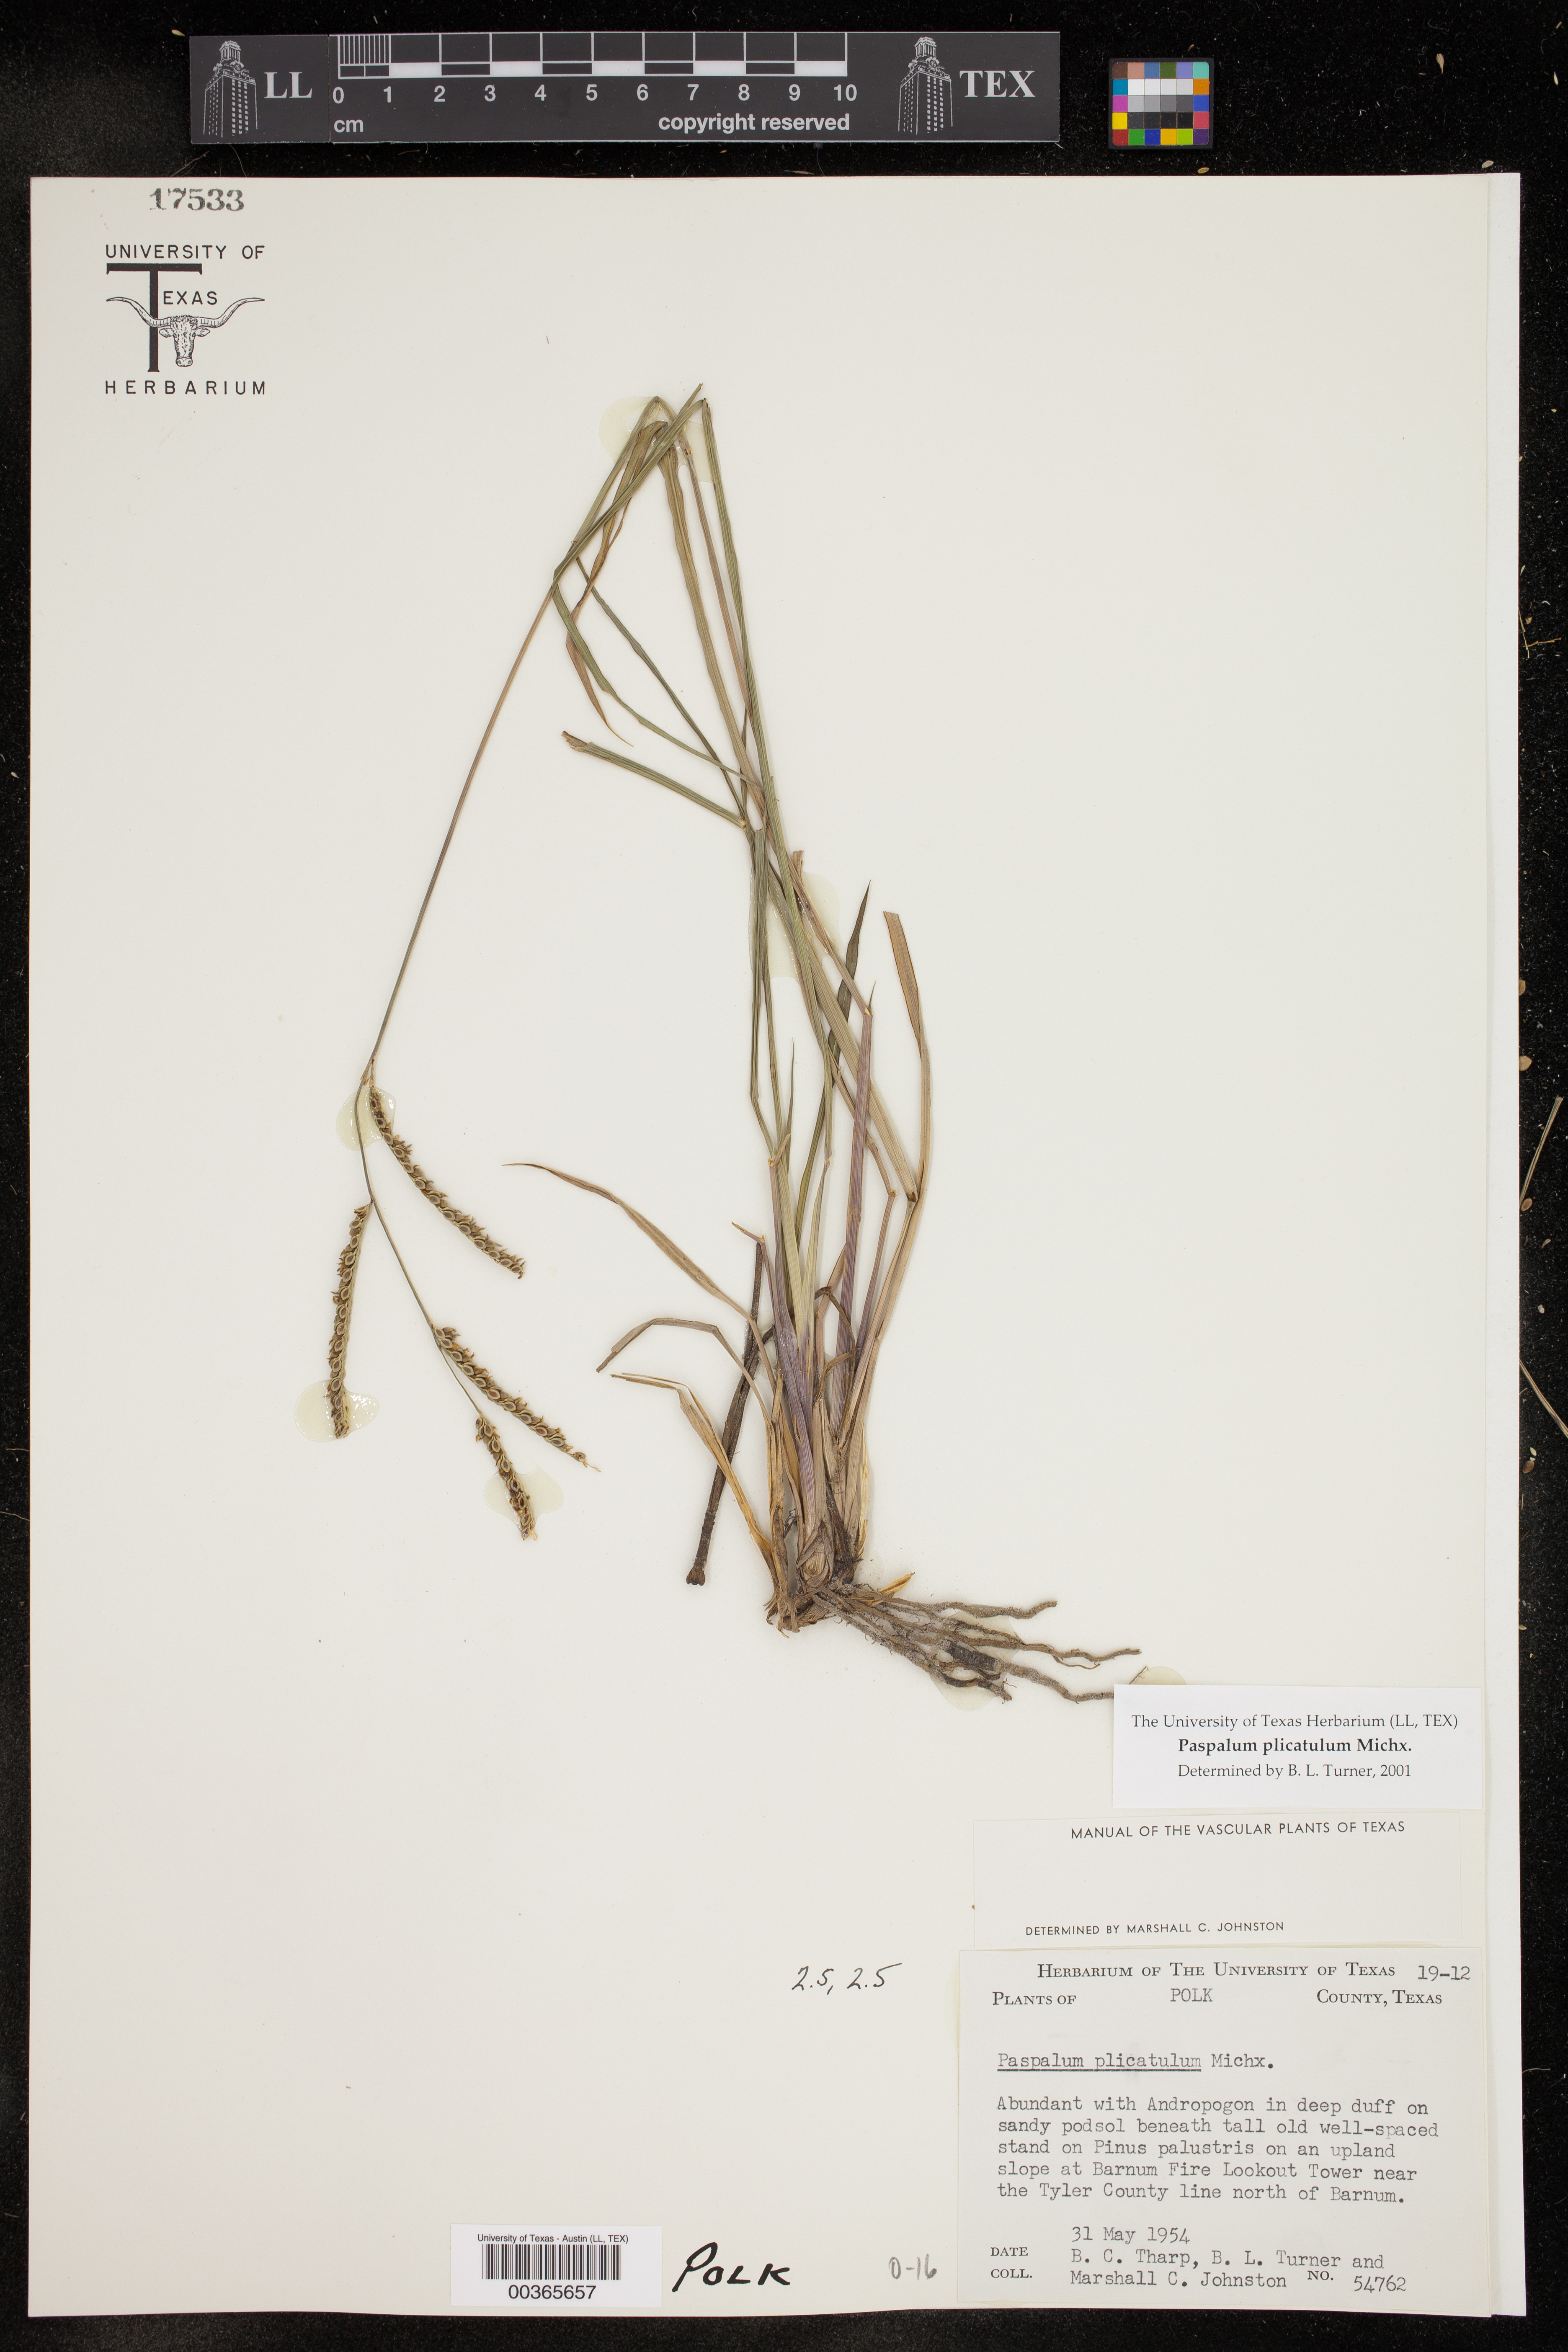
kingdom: Plantae
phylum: Tracheophyta
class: Liliopsida
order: Poales
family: Poaceae
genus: Paspalum
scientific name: Paspalum plicatulum
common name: Top paspalum
